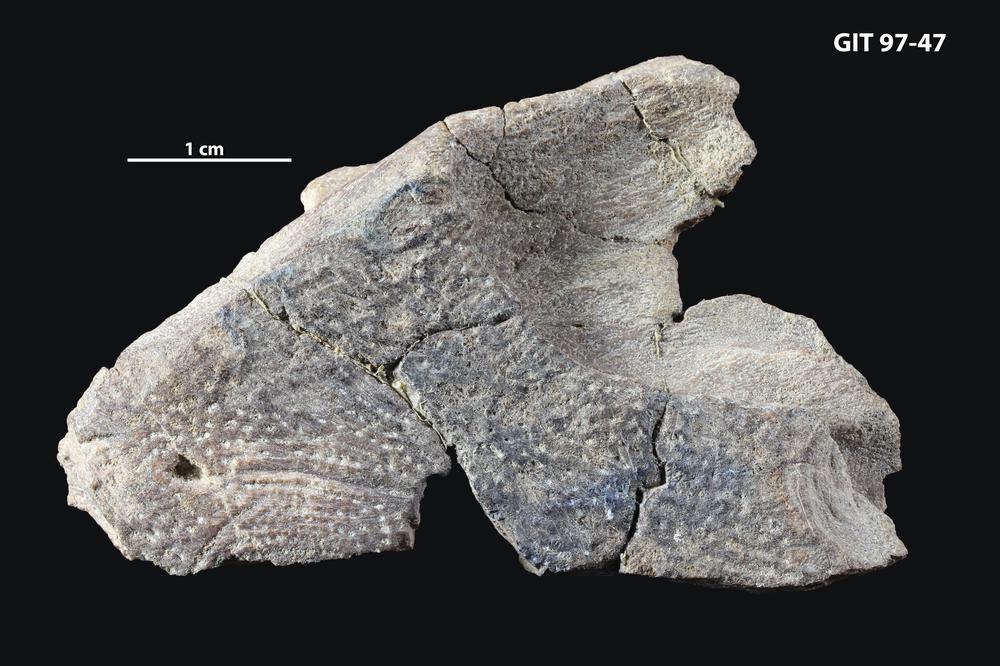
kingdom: Animalia
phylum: Chordata
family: Holonematidae
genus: Holonema
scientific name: Holonema
